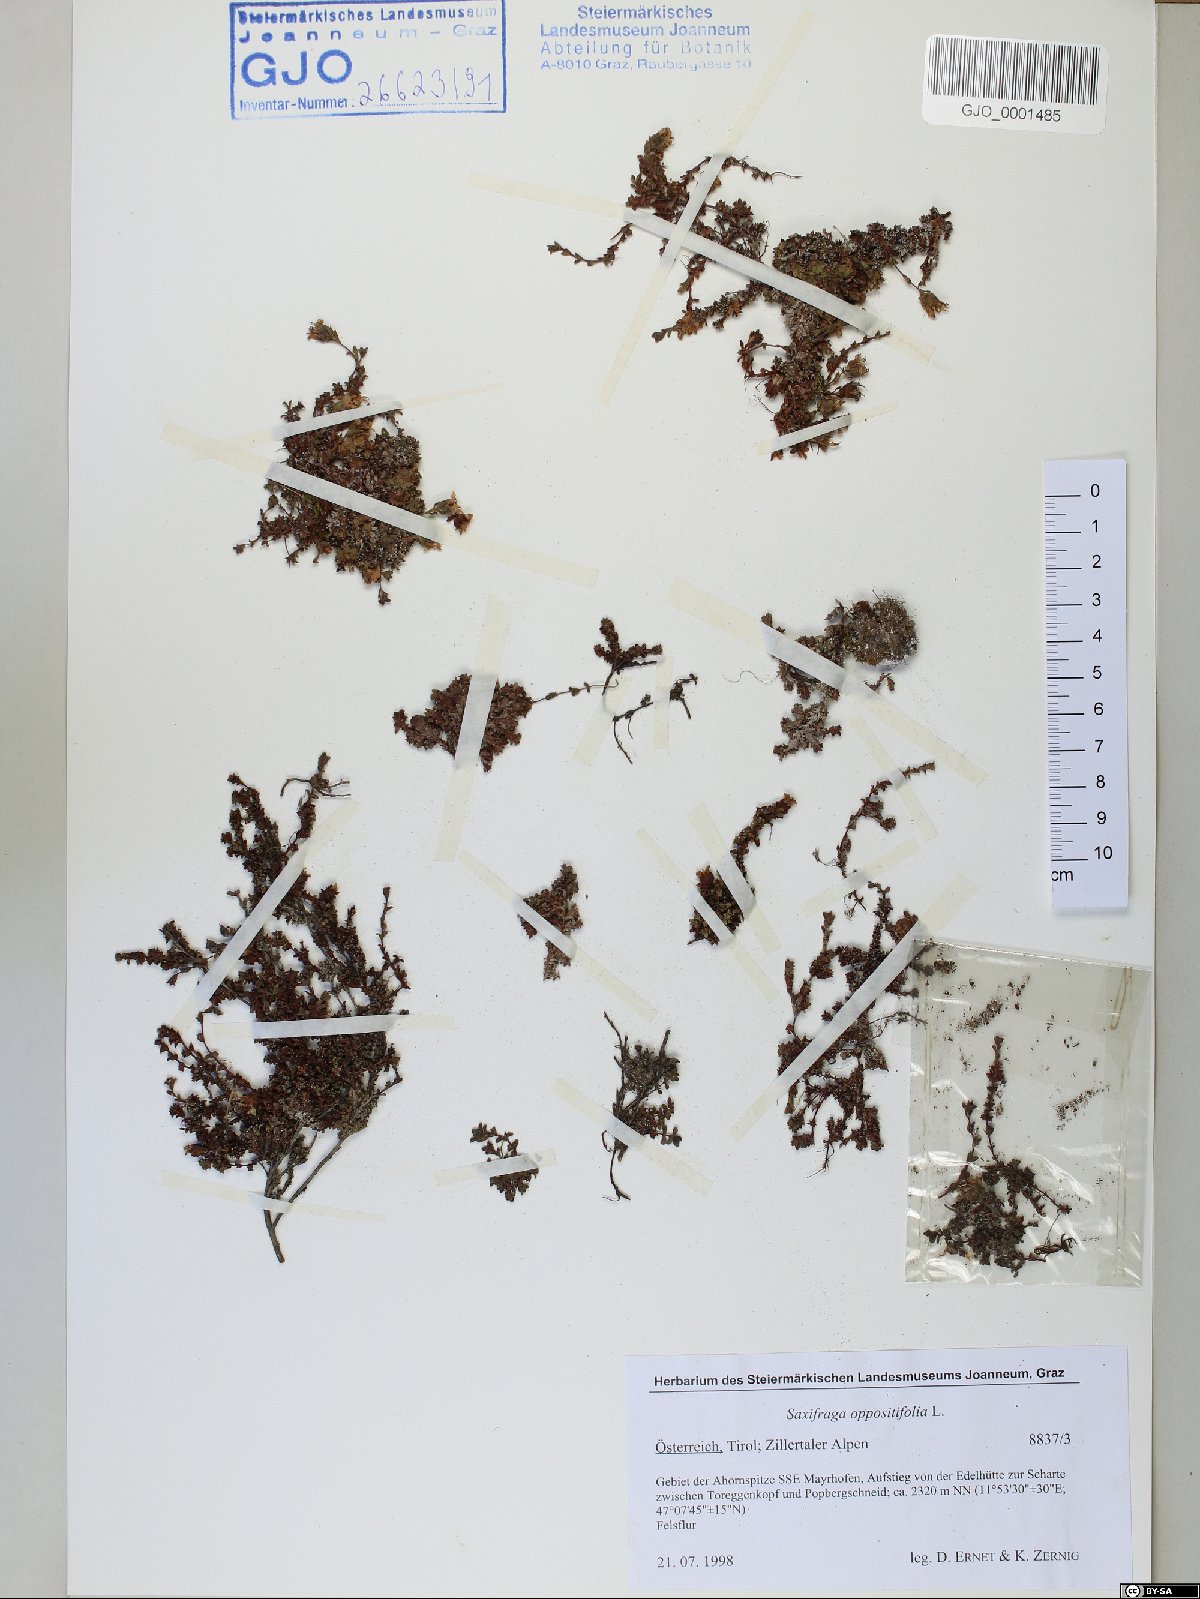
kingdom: Plantae
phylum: Tracheophyta
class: Magnoliopsida
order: Saxifragales
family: Saxifragaceae
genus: Saxifraga
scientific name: Saxifraga oppositifolia
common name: Purple saxifrage
